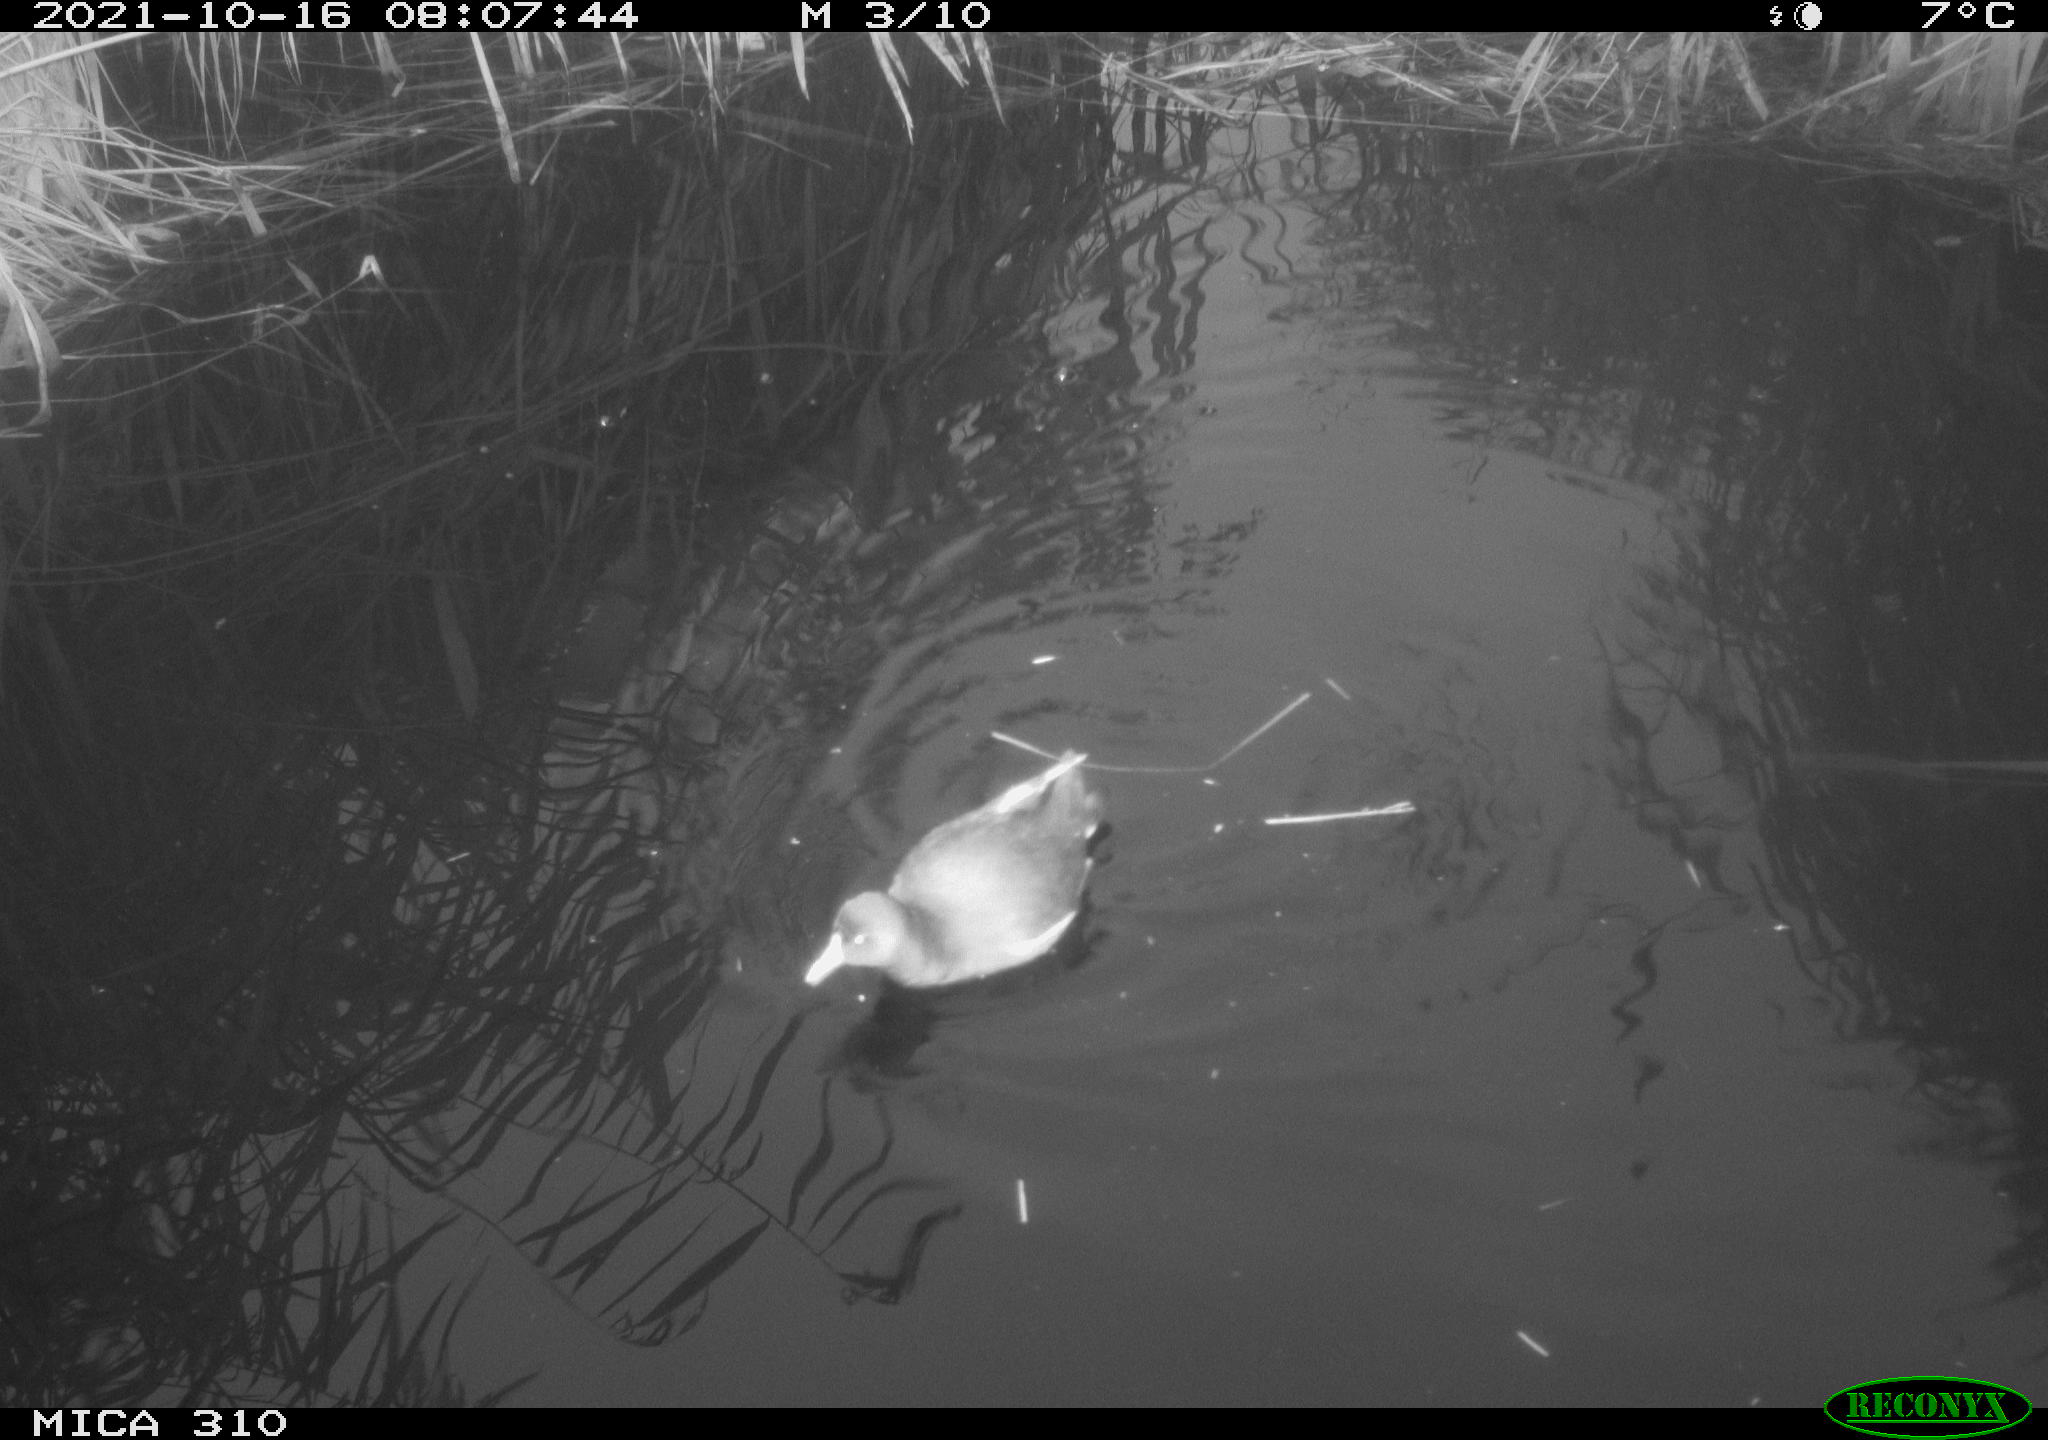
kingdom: Animalia
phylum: Chordata
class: Aves
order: Gruiformes
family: Rallidae
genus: Gallinula
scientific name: Gallinula chloropus
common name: Common moorhen
